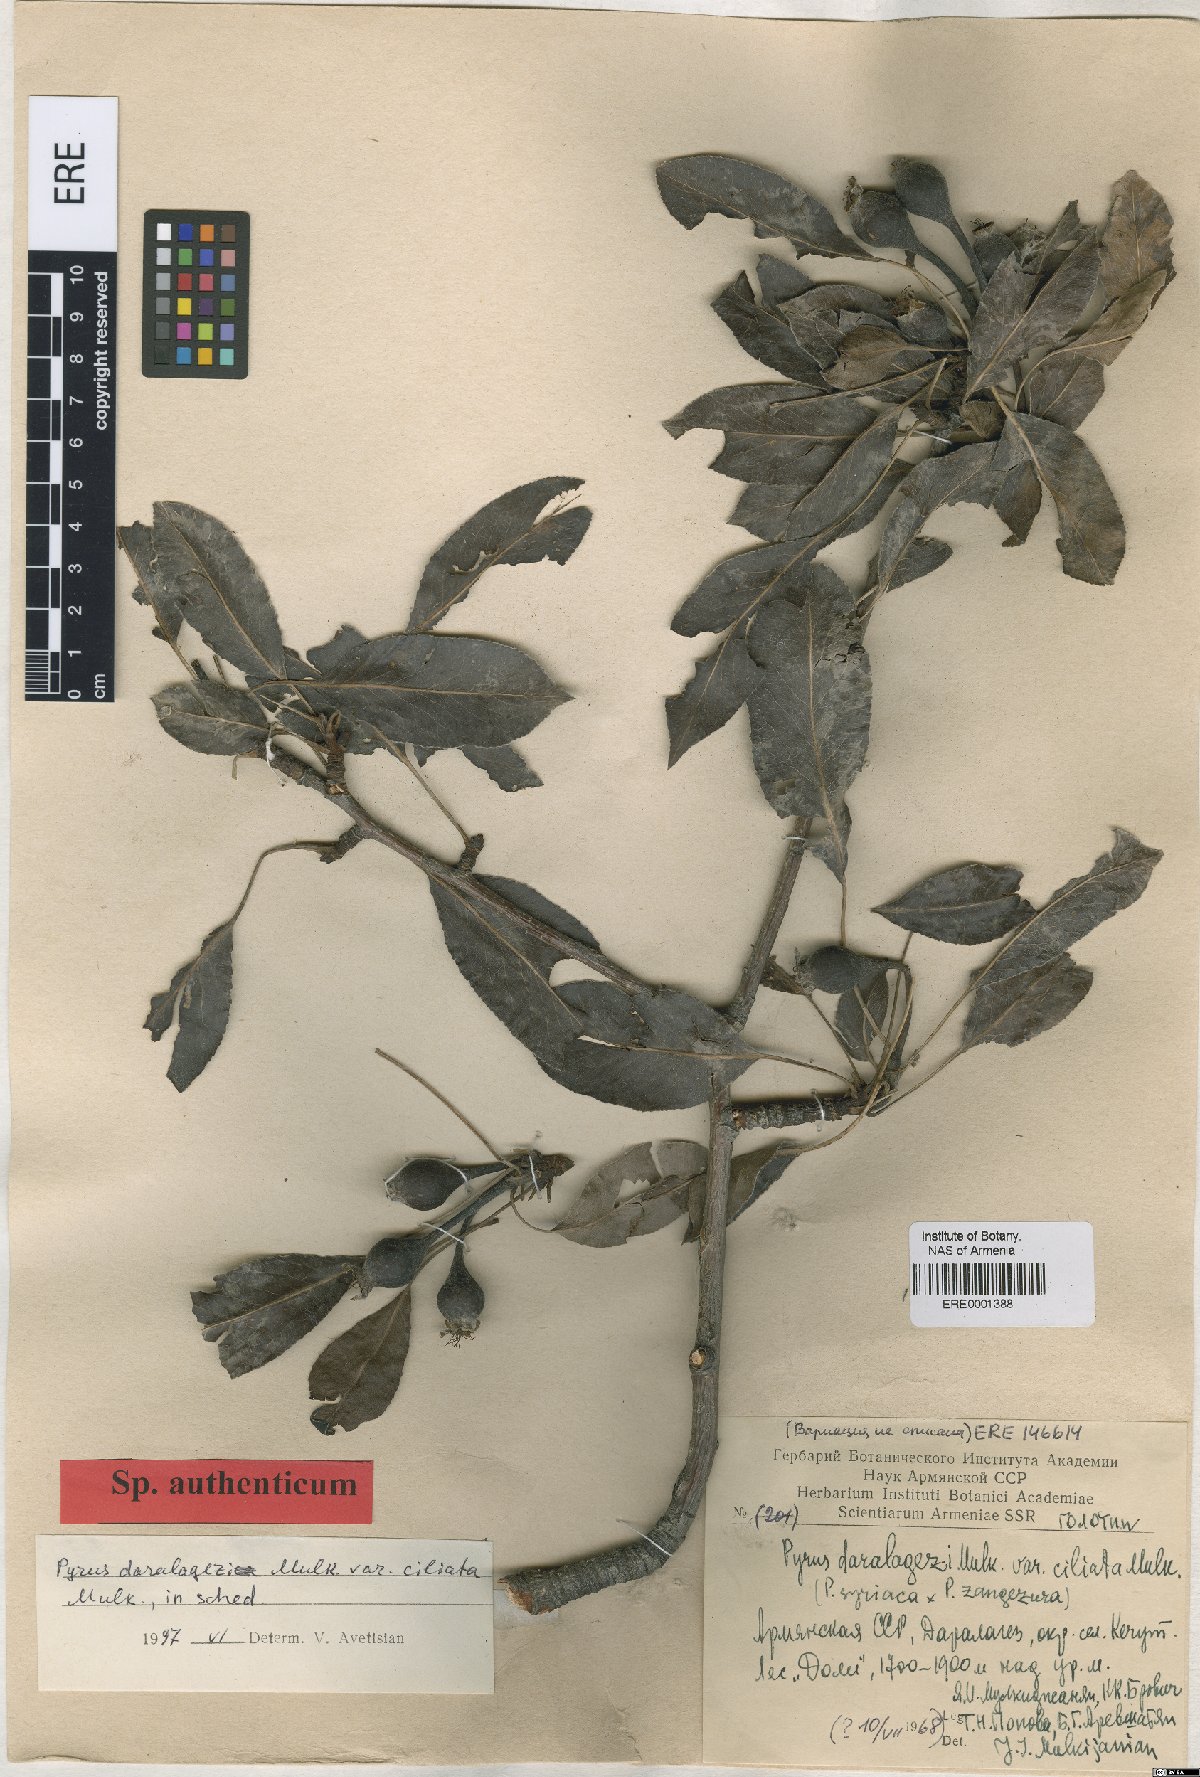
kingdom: Plantae
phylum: Tracheophyta
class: Magnoliopsida
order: Rosales
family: Rosaceae
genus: Pyrus
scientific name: Pyrus daralagezi
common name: Daralagezian pear
